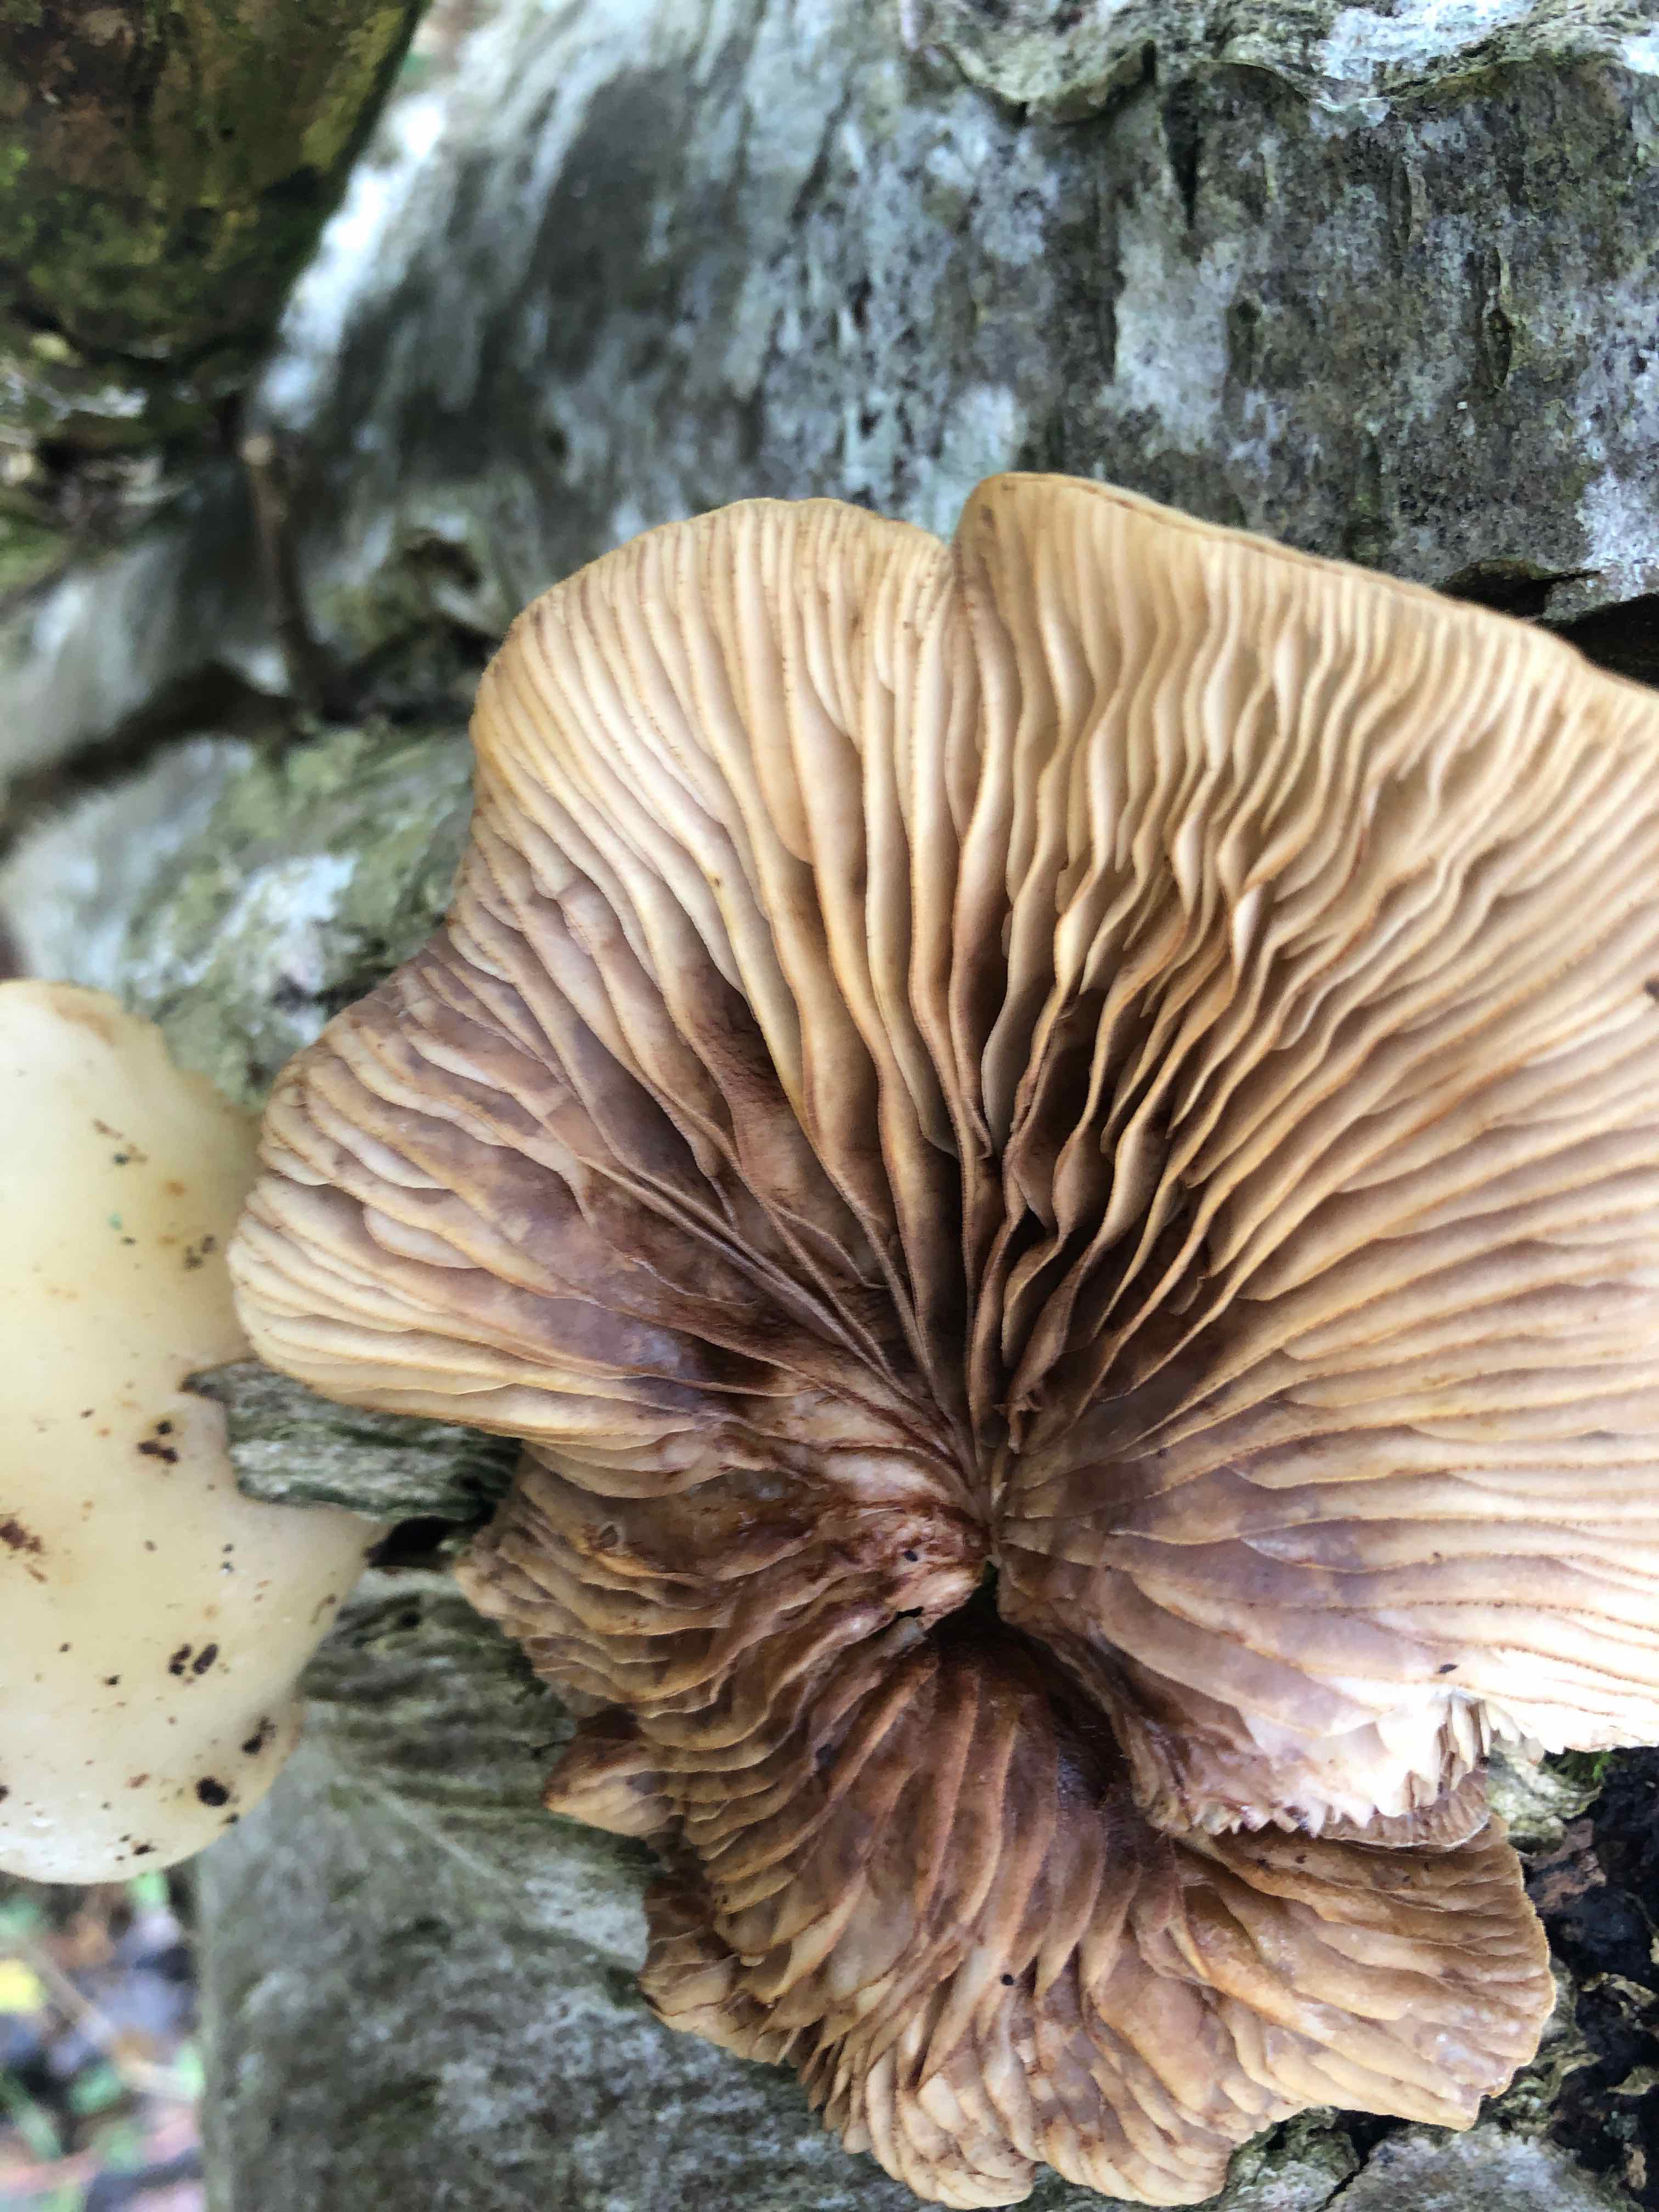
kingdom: Fungi
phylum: Basidiomycota
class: Agaricomycetes
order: Agaricales
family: Crepidotaceae
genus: Crepidotus
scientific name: Crepidotus mollis
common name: blød muslingesvamp
